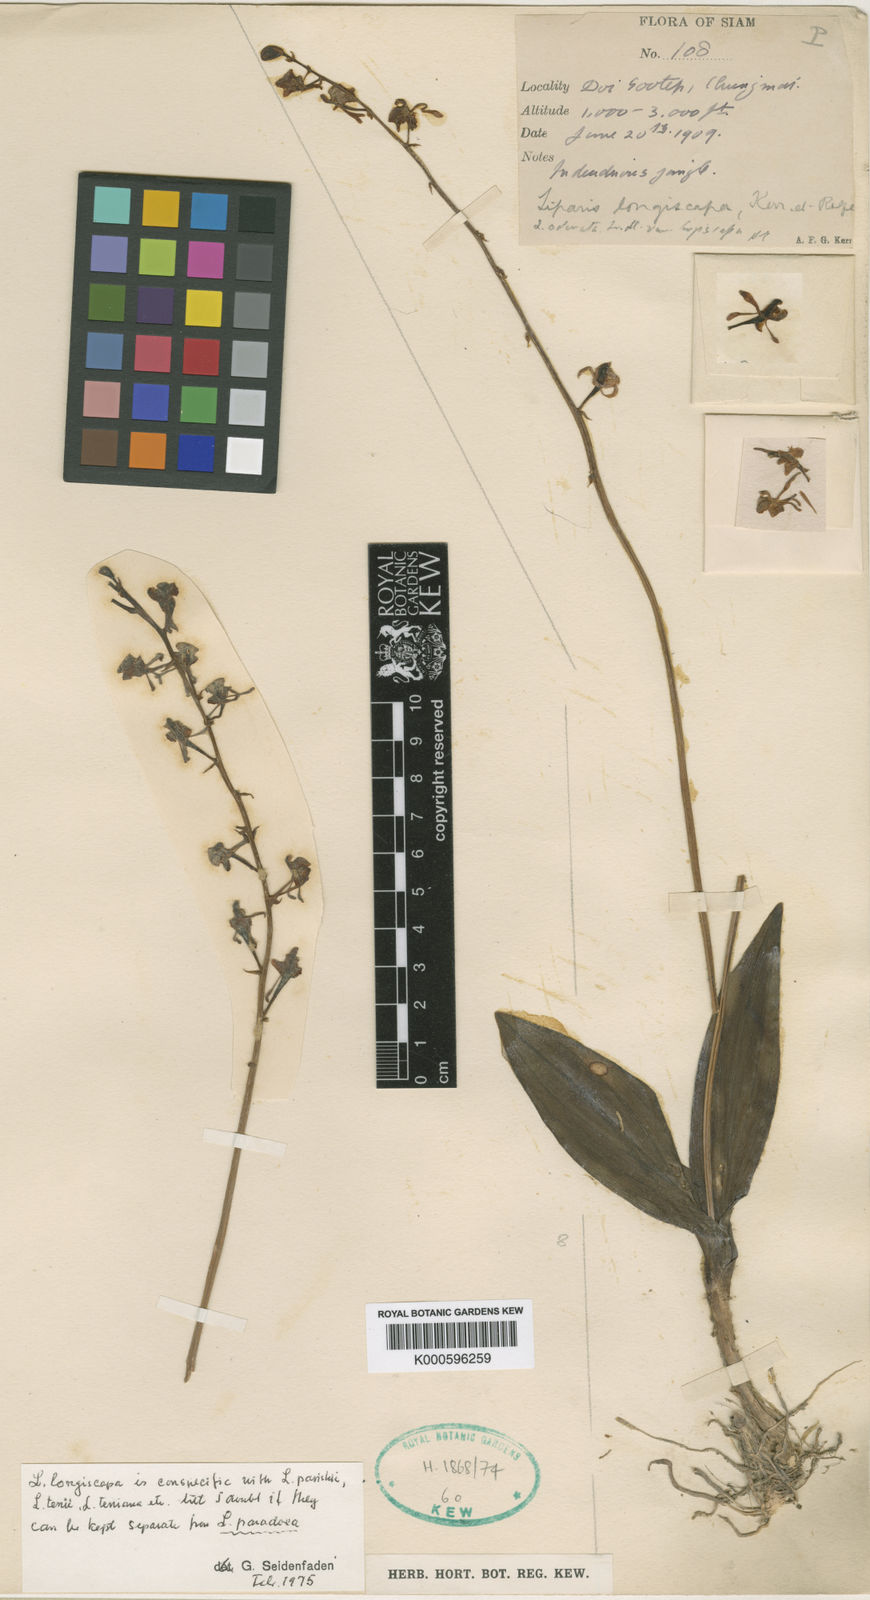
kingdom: Plantae
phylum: Tracheophyta
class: Liliopsida
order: Asparagales
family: Orchidaceae
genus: Liparis
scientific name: Liparis odorata
